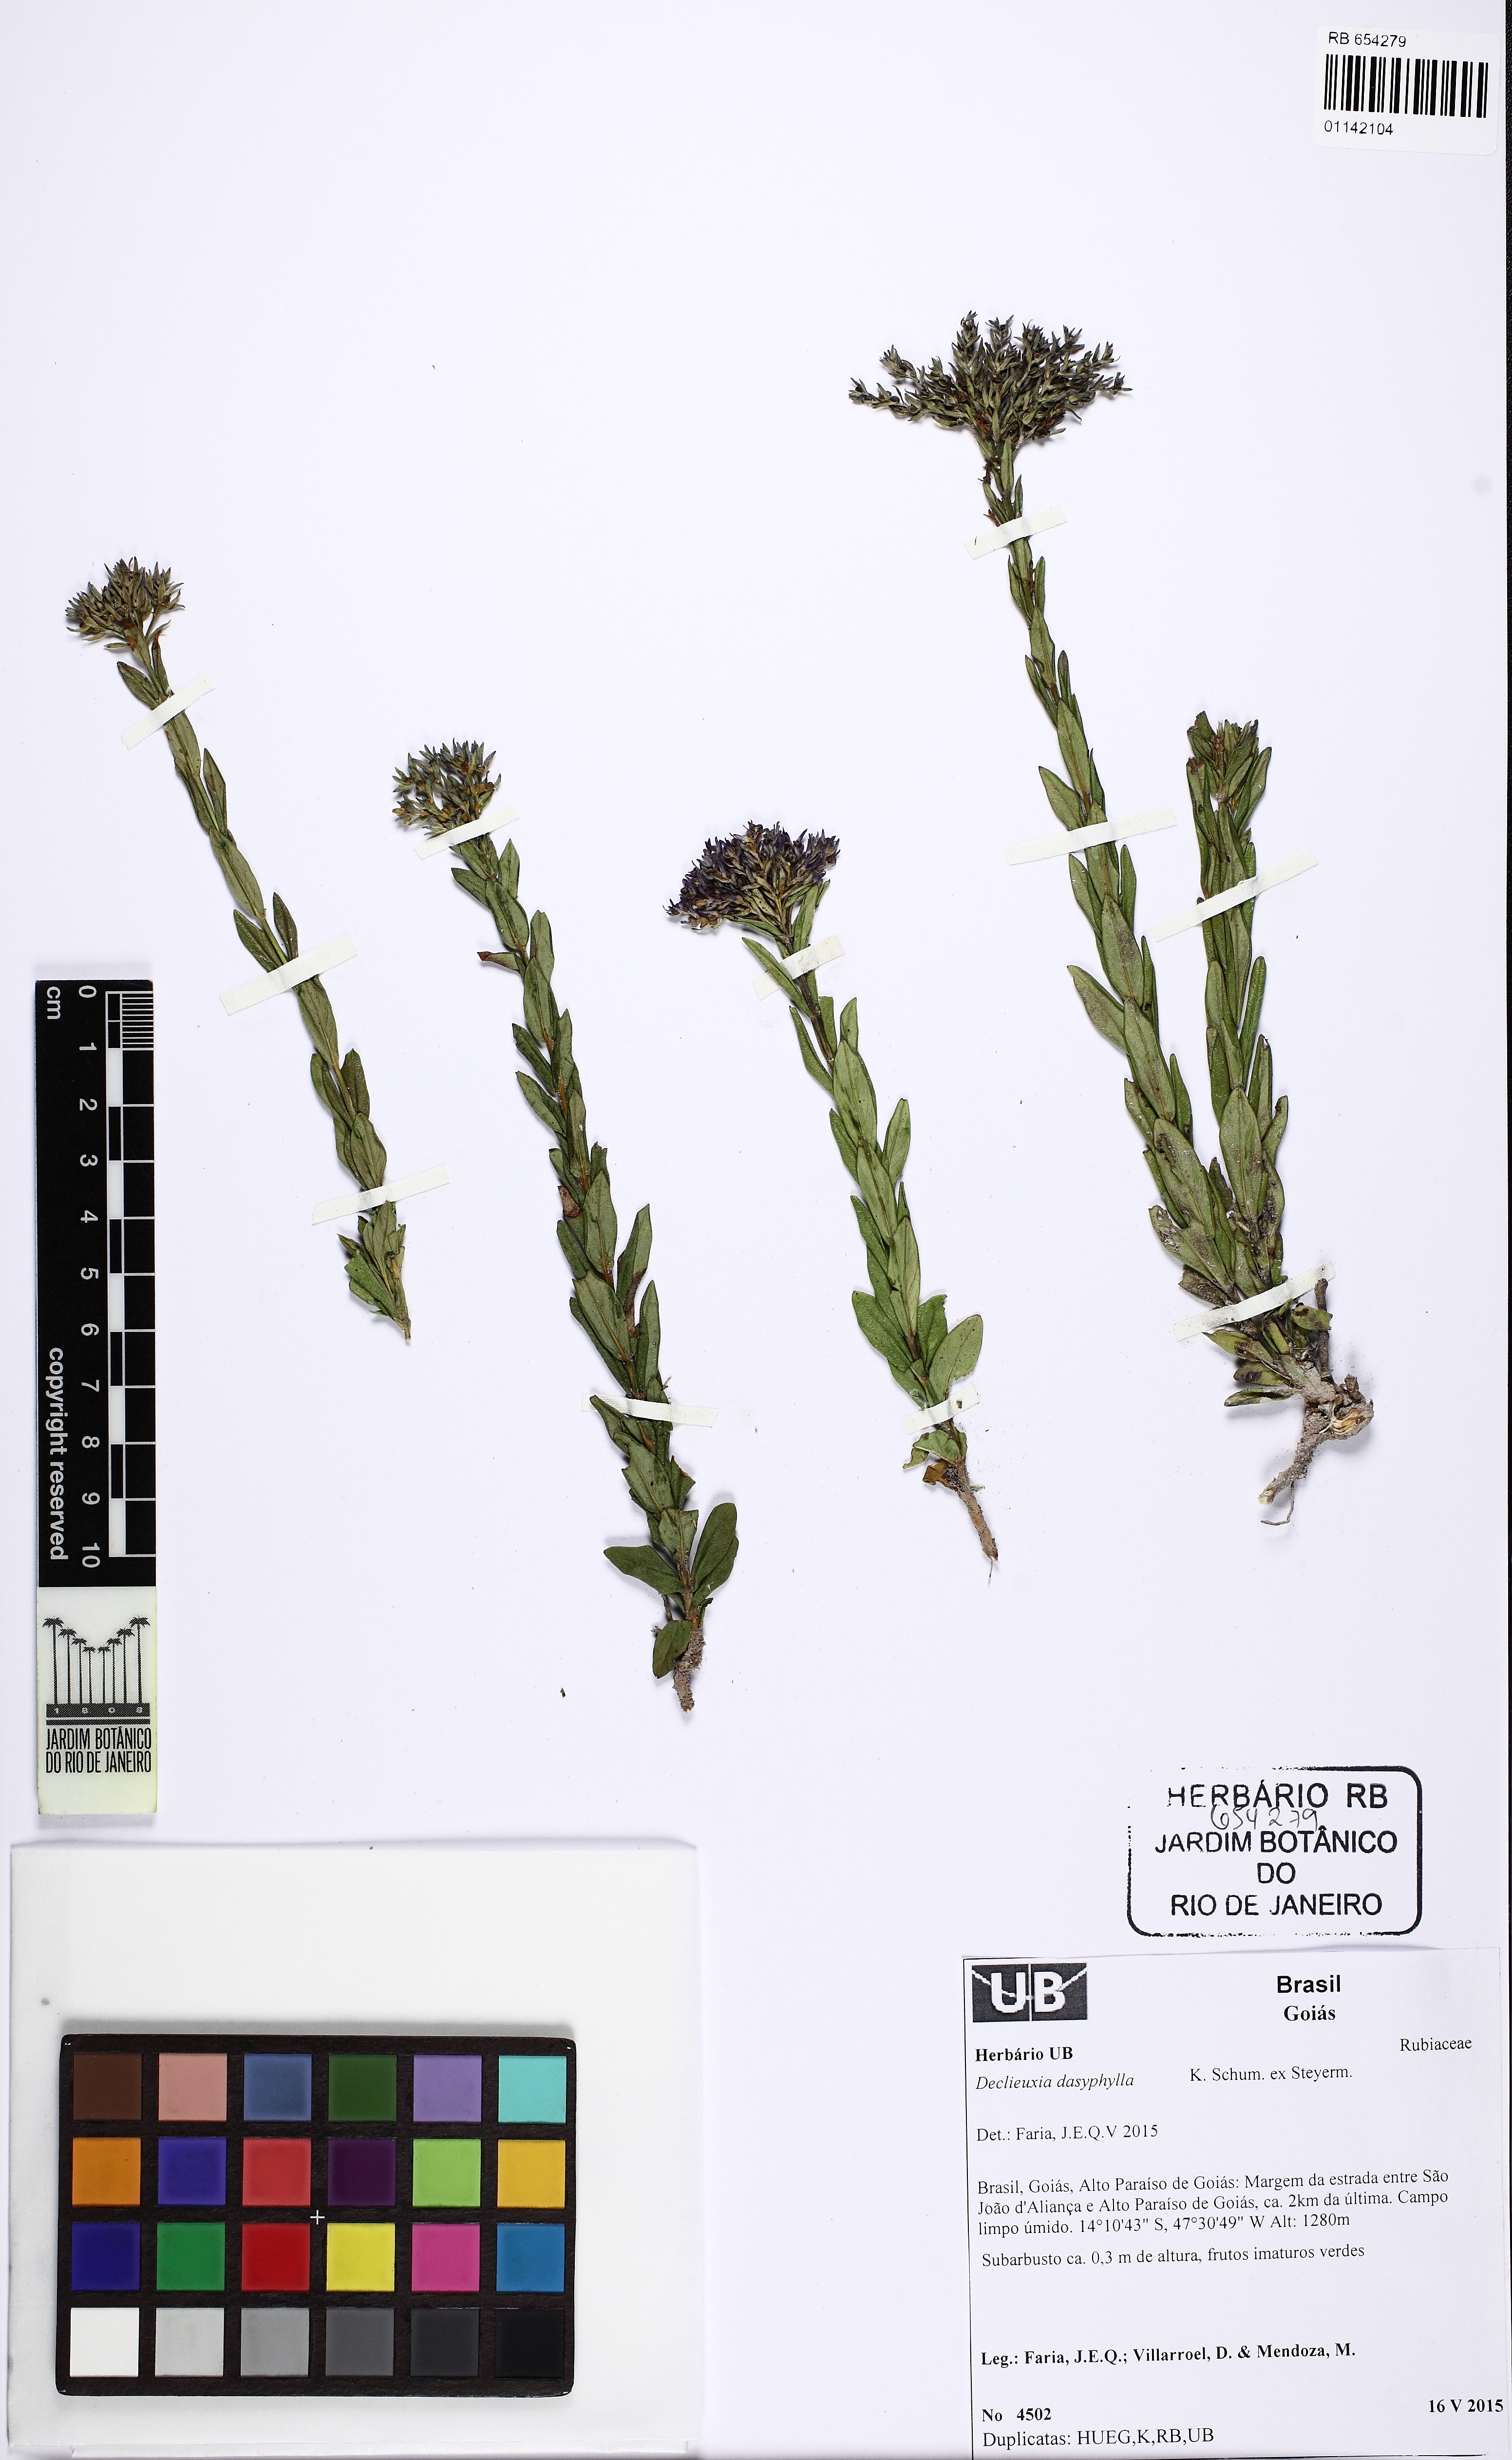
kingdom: Plantae
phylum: Tracheophyta
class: Magnoliopsida
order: Gentianales
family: Rubiaceae
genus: Declieuxia
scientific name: Declieuxia dasyphylla
